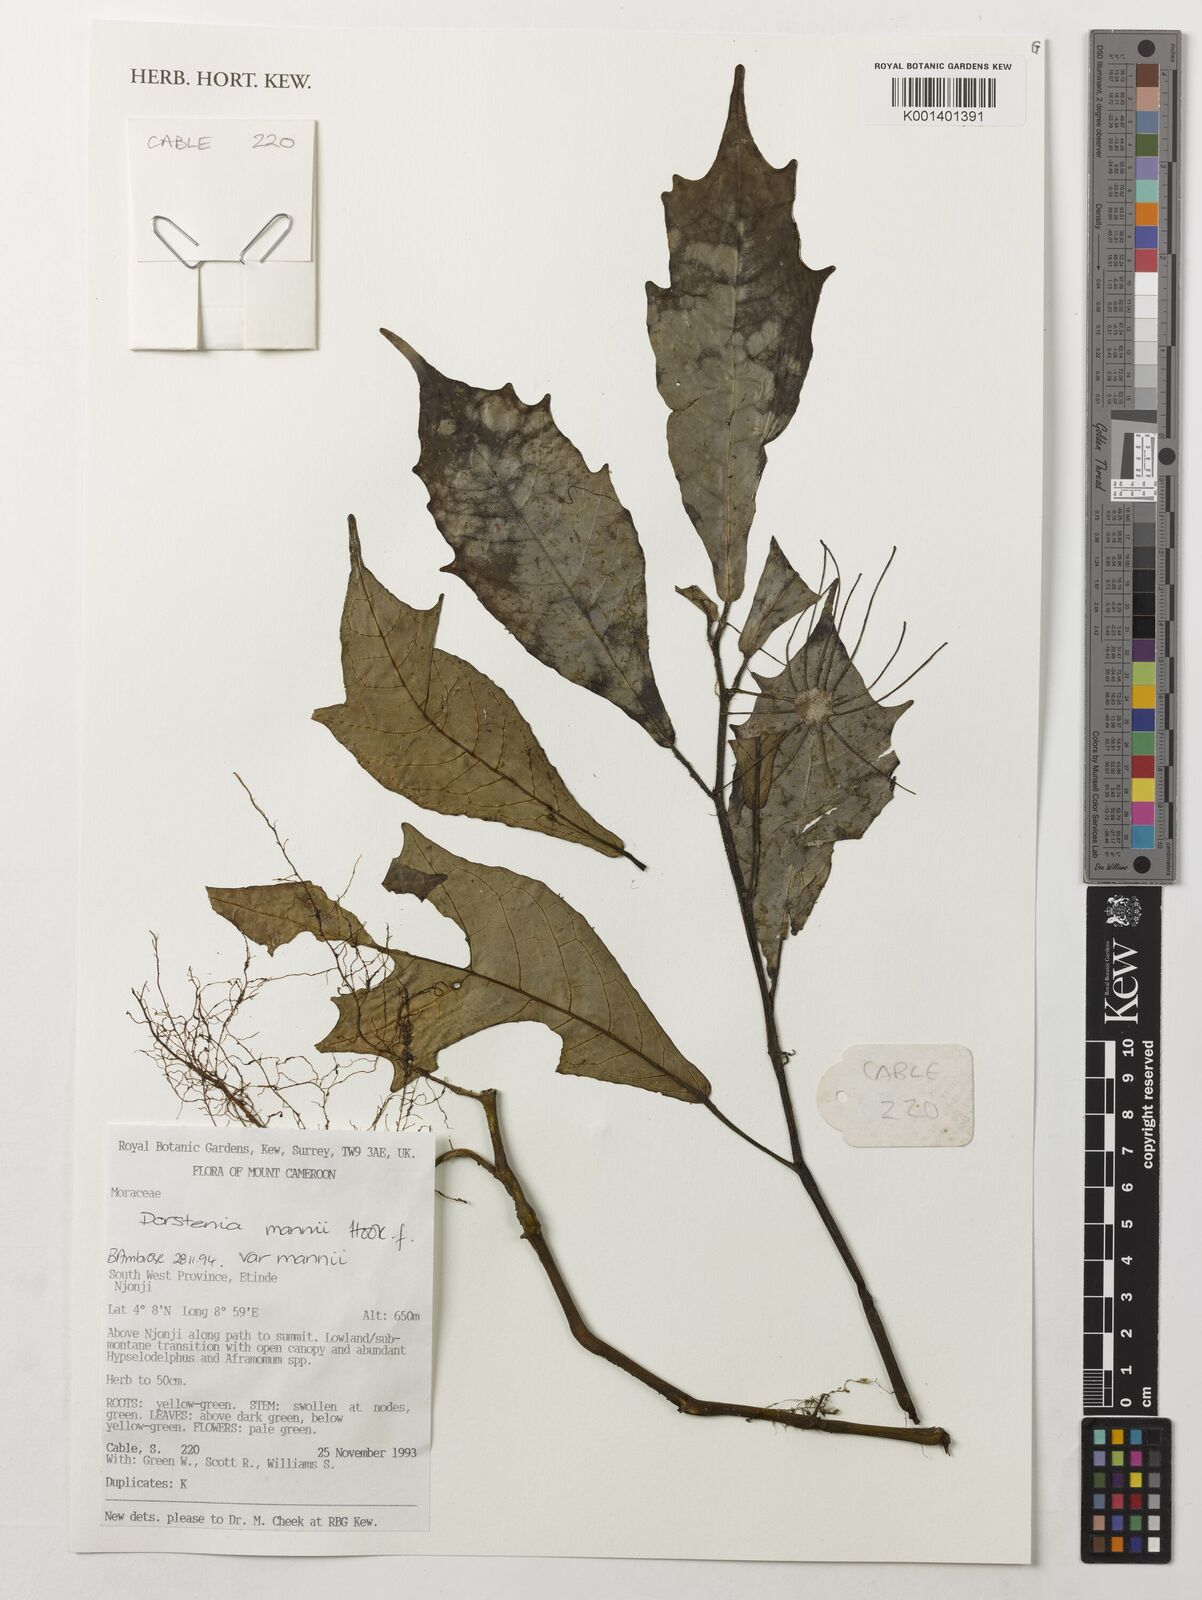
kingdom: Plantae
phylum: Tracheophyta
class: Magnoliopsida
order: Rosales
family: Moraceae
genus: Dorstenia
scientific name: Dorstenia mannii
